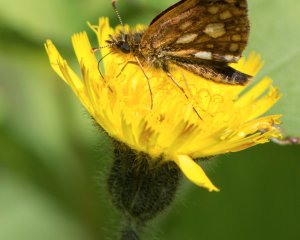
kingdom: Animalia
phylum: Arthropoda
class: Insecta
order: Lepidoptera
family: Hesperiidae
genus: Carterocephalus
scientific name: Carterocephalus palaemon
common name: Chequered Skipper
